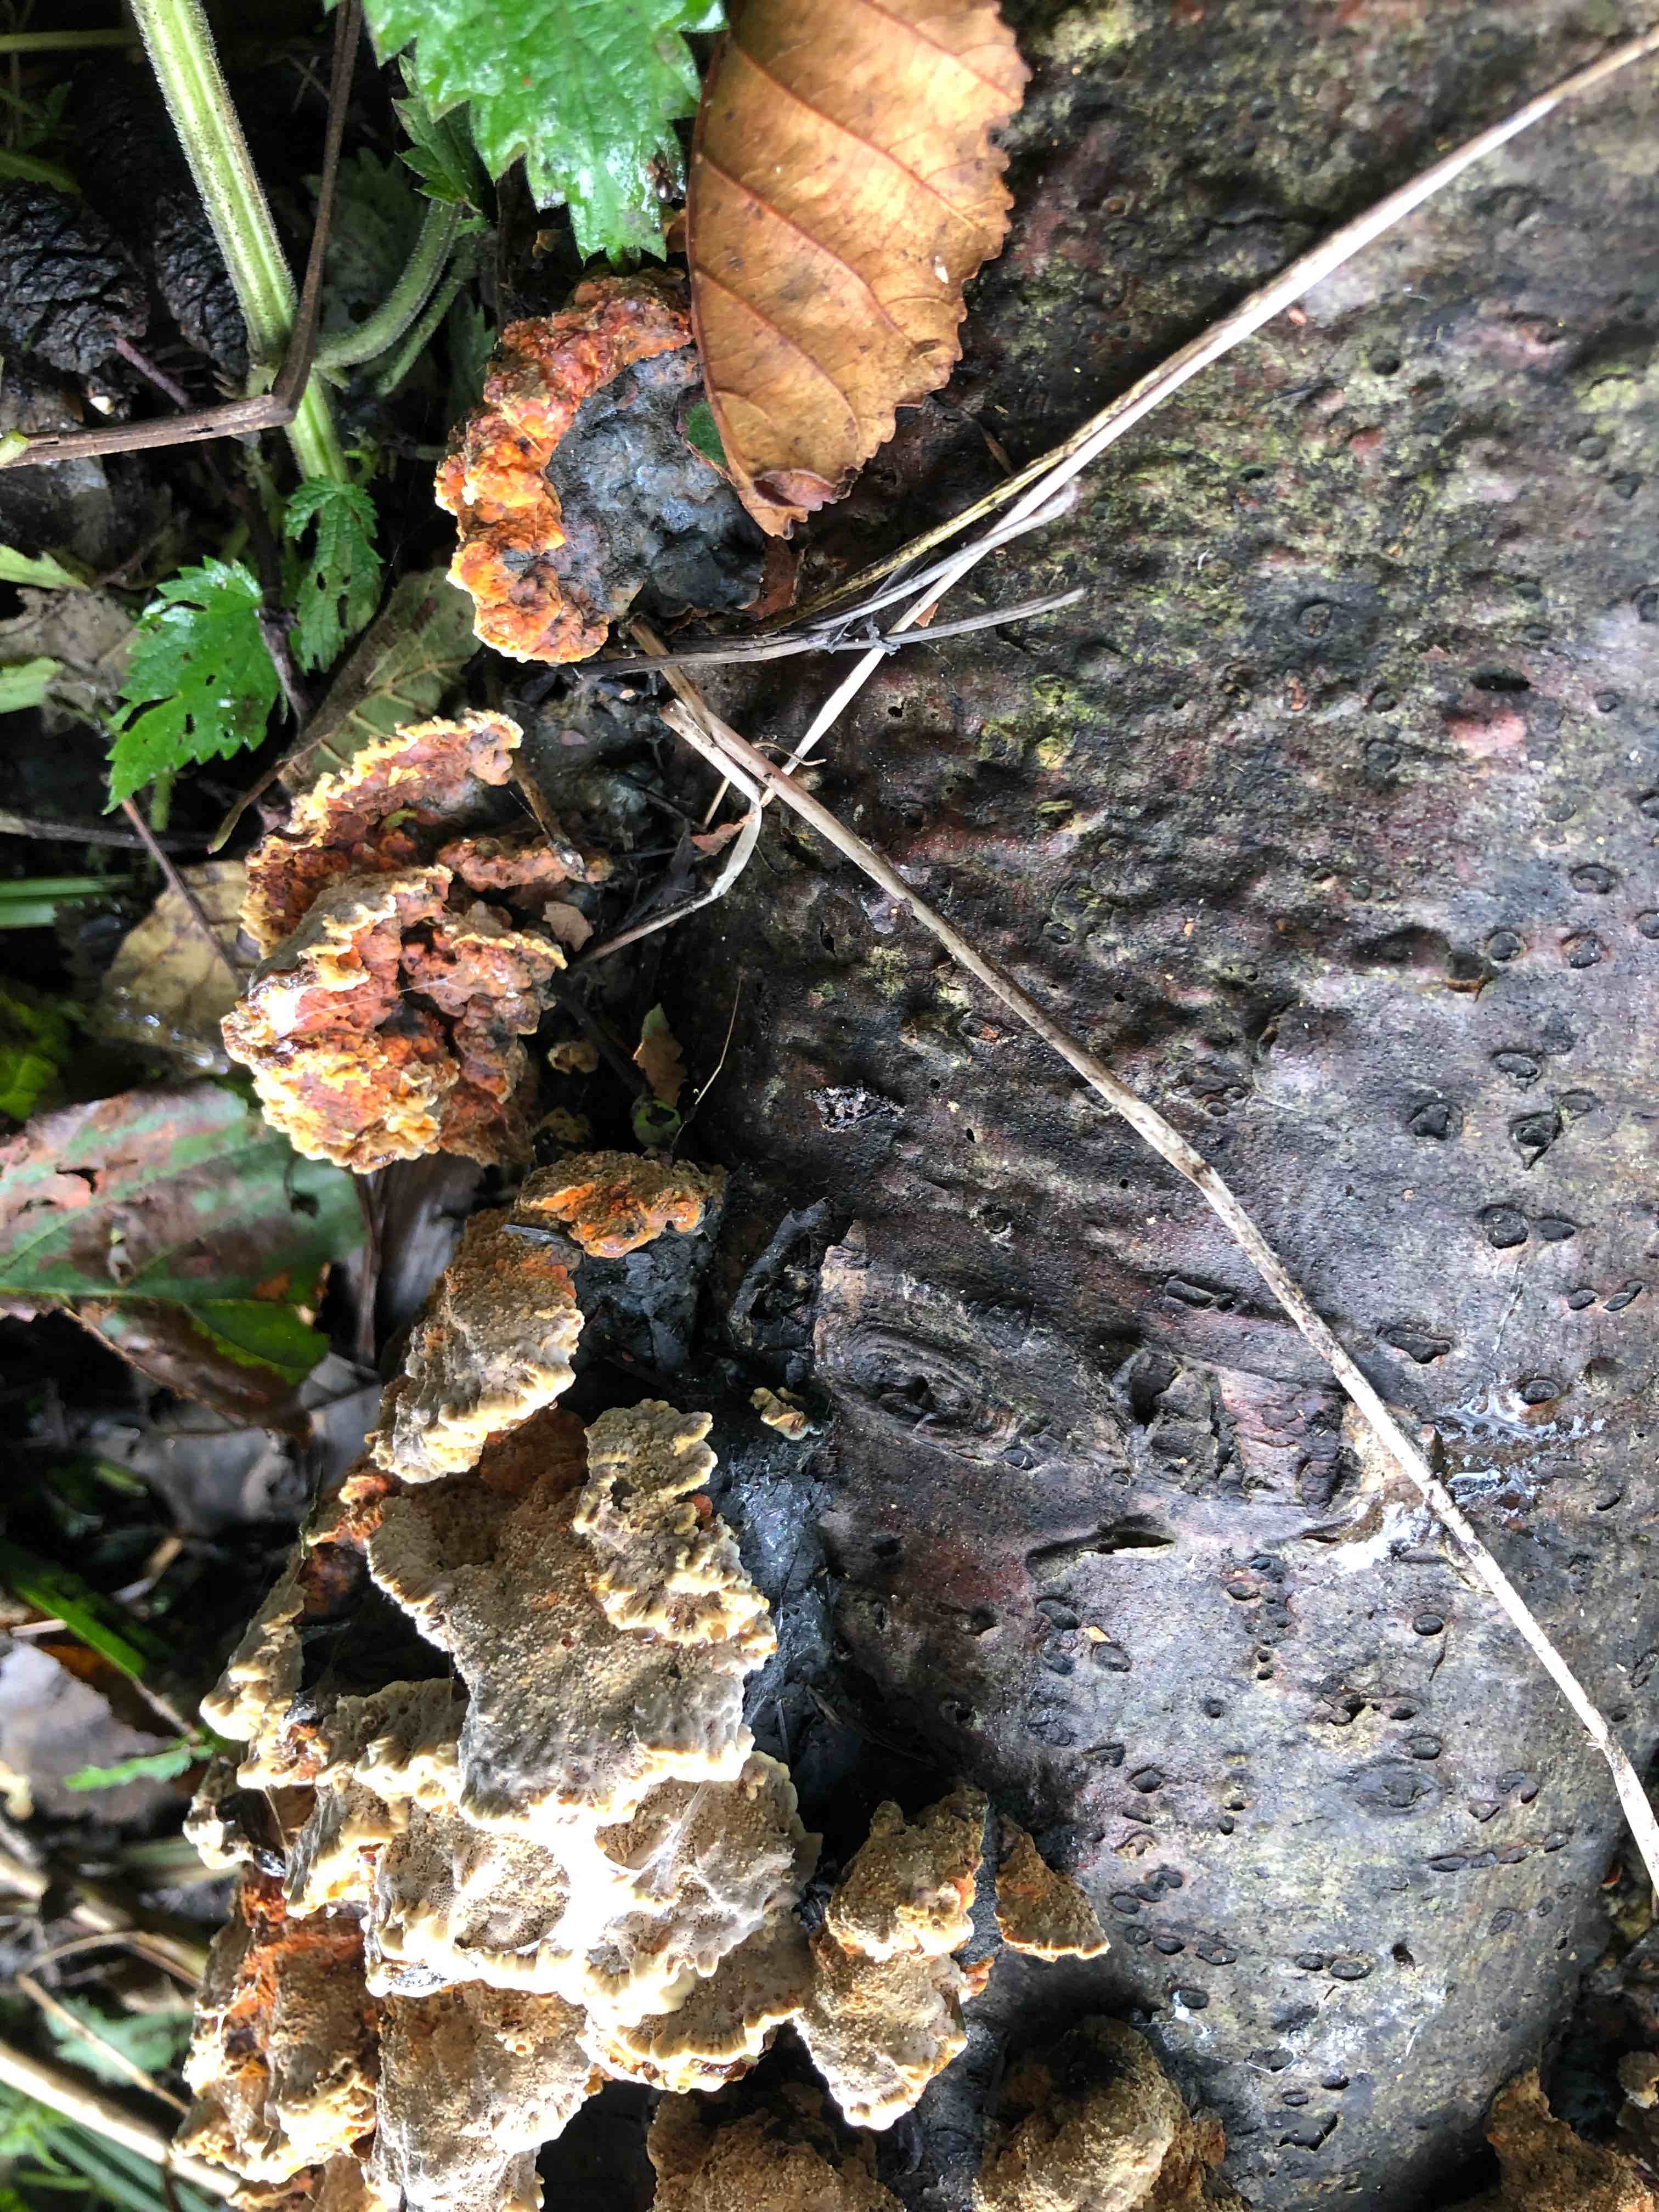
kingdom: Fungi
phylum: Basidiomycota
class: Agaricomycetes
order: Hymenochaetales
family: Hymenochaetaceae
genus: Xanthoporia
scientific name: Xanthoporia radiata
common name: elle-spejlporesvamp
